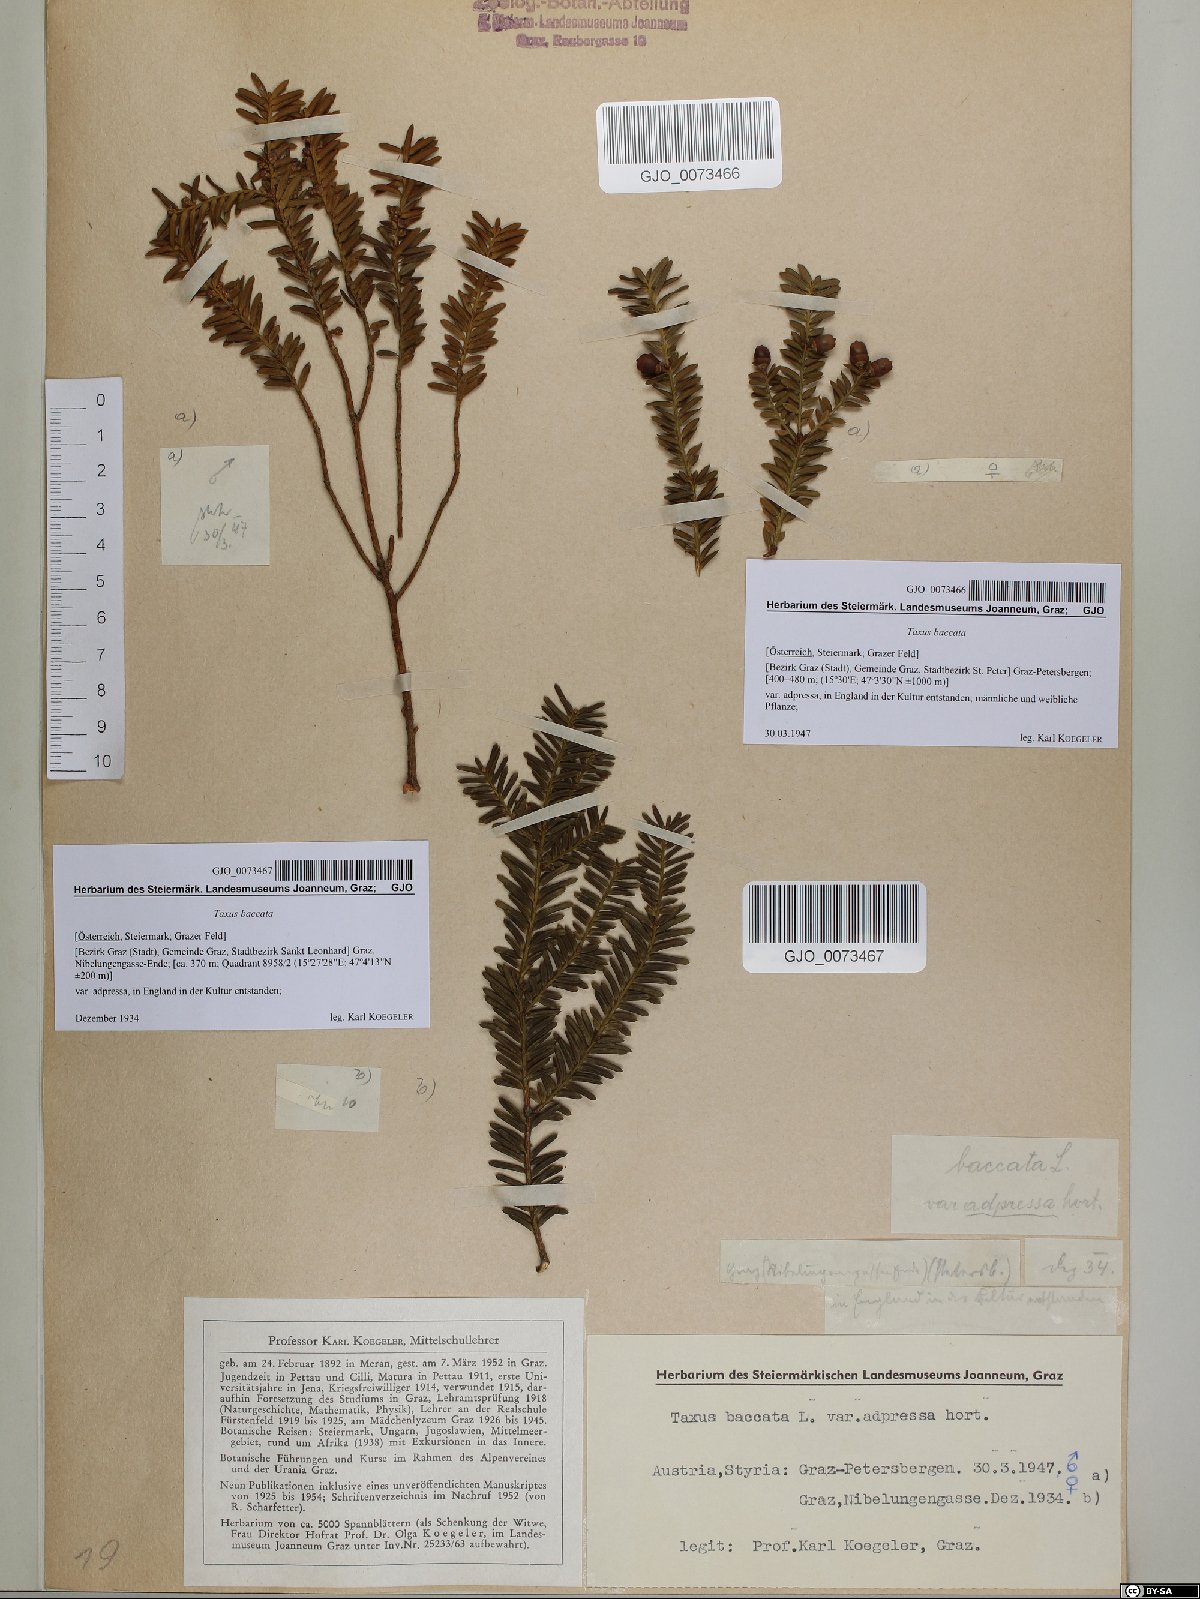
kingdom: Plantae
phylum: Tracheophyta
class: Pinopsida
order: Pinales
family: Taxaceae
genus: Taxus
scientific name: Taxus baccata
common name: Yew
